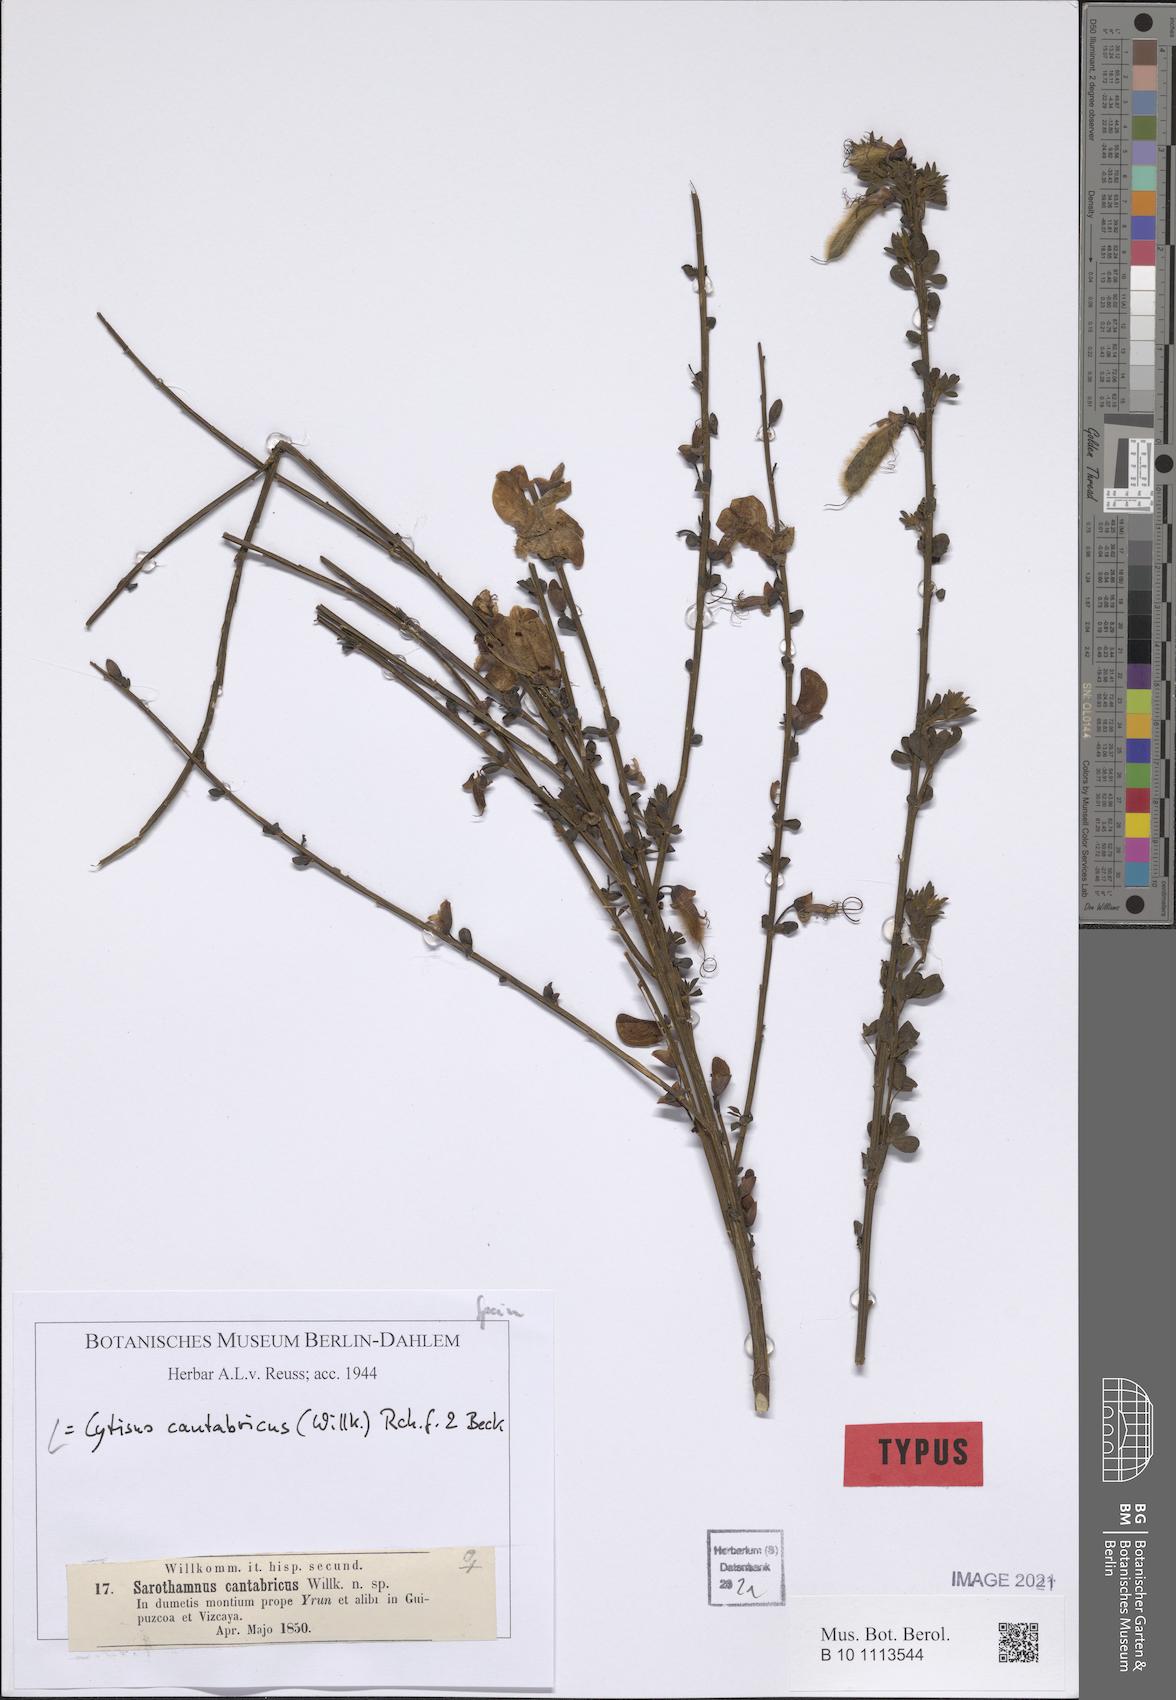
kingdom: Plantae
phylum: Tracheophyta
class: Magnoliopsida
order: Fabales
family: Fabaceae
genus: Cytisus
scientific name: Cytisus cantabricus
